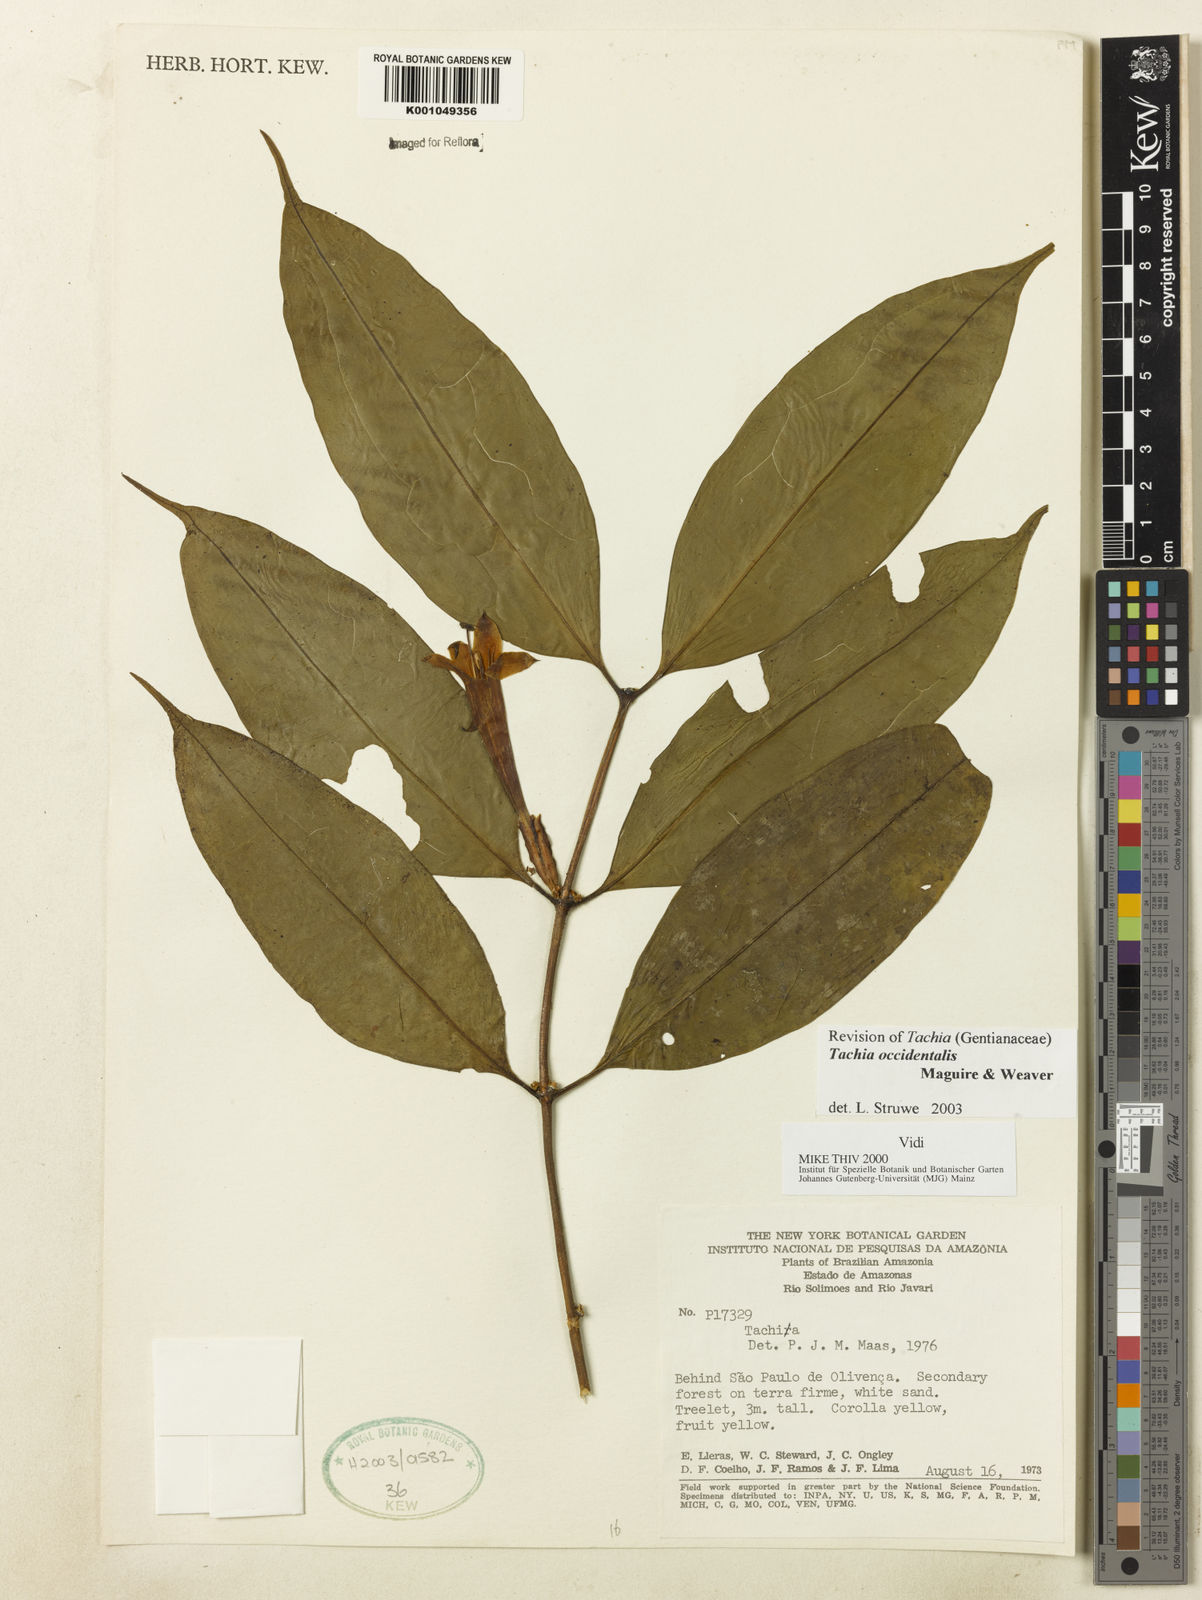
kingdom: Plantae
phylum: Tracheophyta
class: Magnoliopsida
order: Gentianales
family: Gentianaceae
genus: Tachia
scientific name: Tachia orientalis
